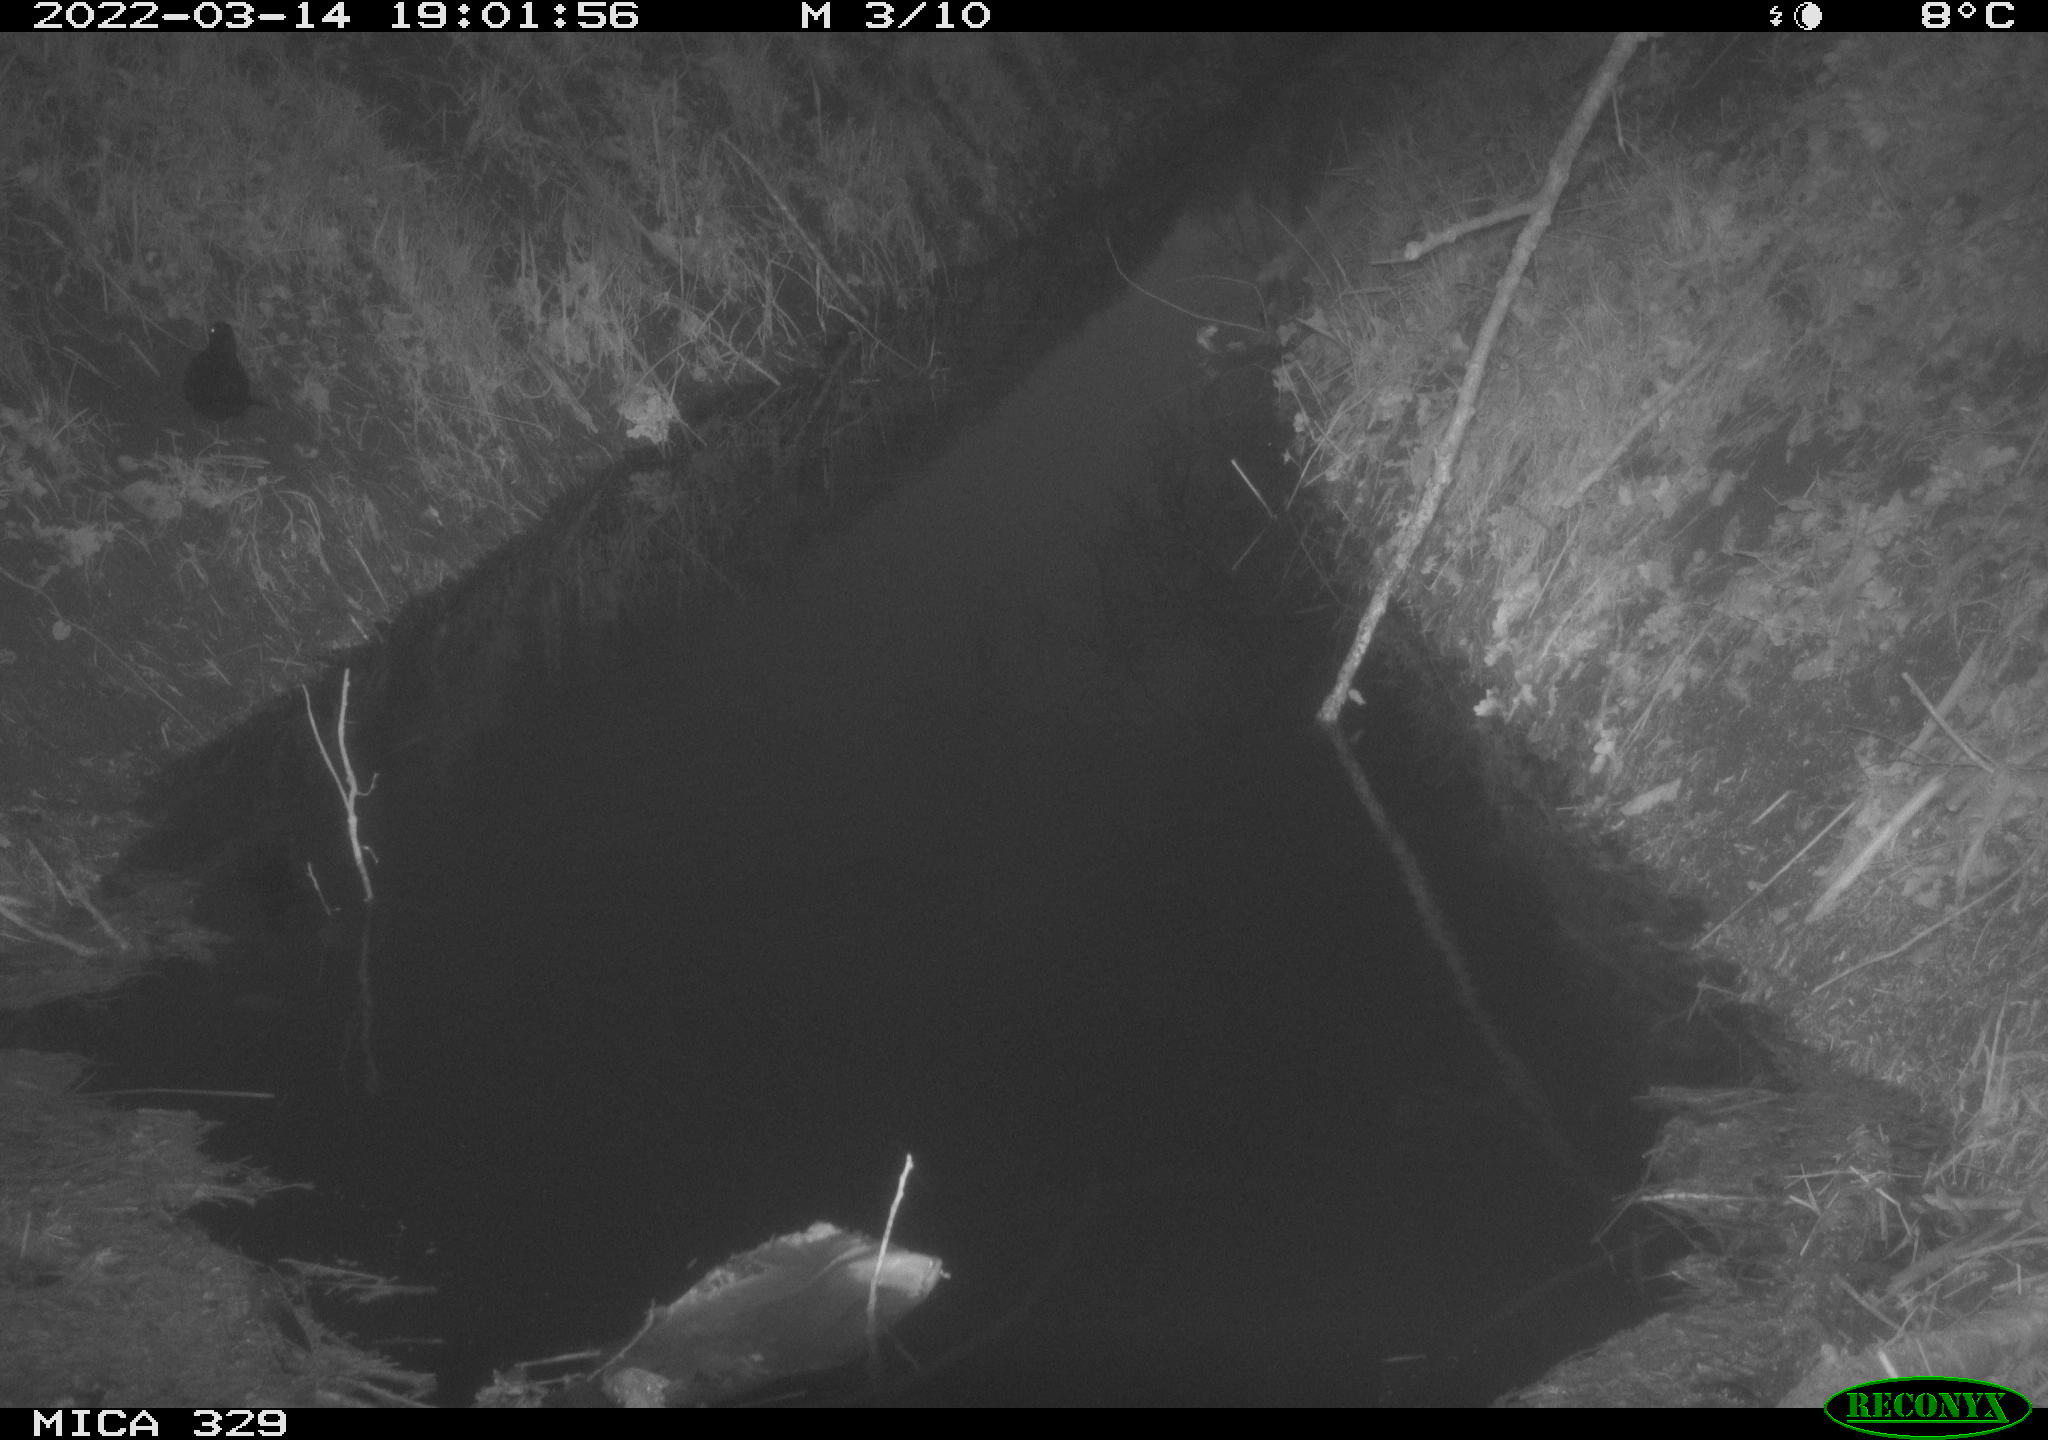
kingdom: Animalia
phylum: Chordata
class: Aves
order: Passeriformes
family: Turdidae
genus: Turdus
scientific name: Turdus merula
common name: Common blackbird
